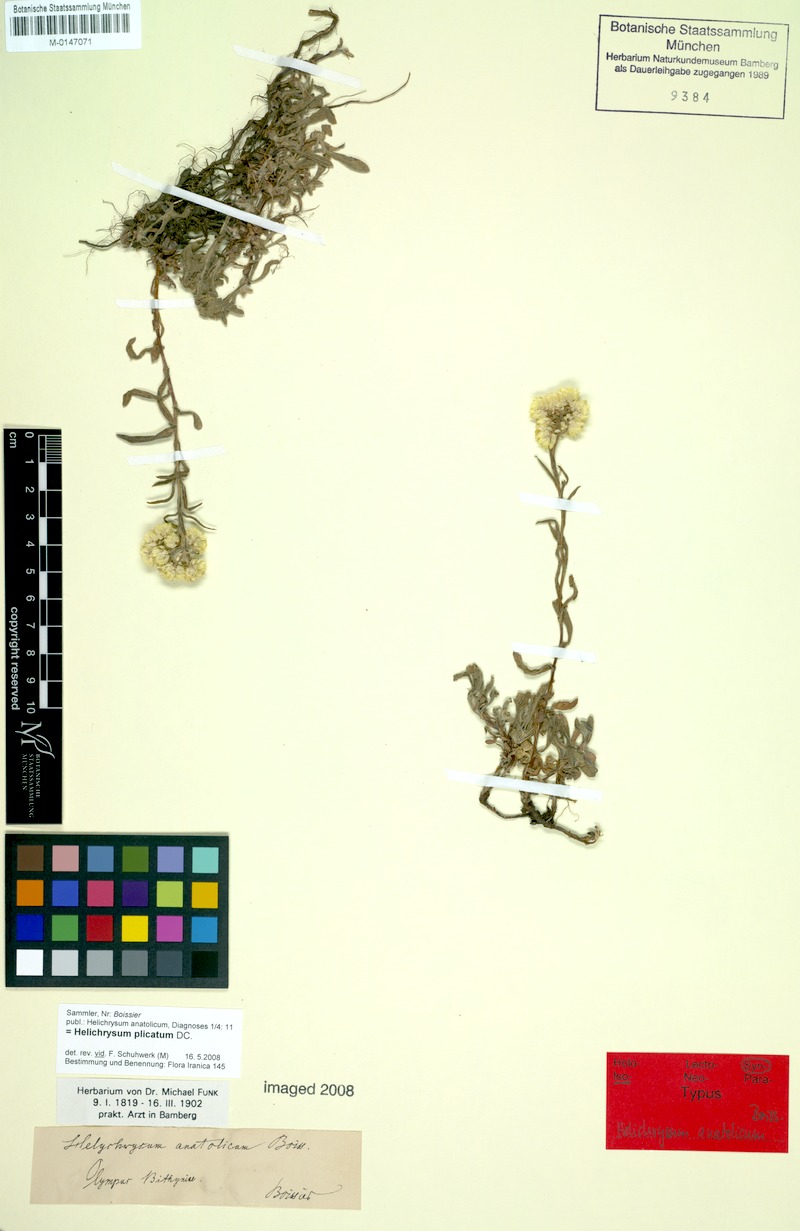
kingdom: Plantae
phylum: Tracheophyta
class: Magnoliopsida
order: Asterales
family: Asteraceae
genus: Helichrysum
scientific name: Helichrysum plicatum
